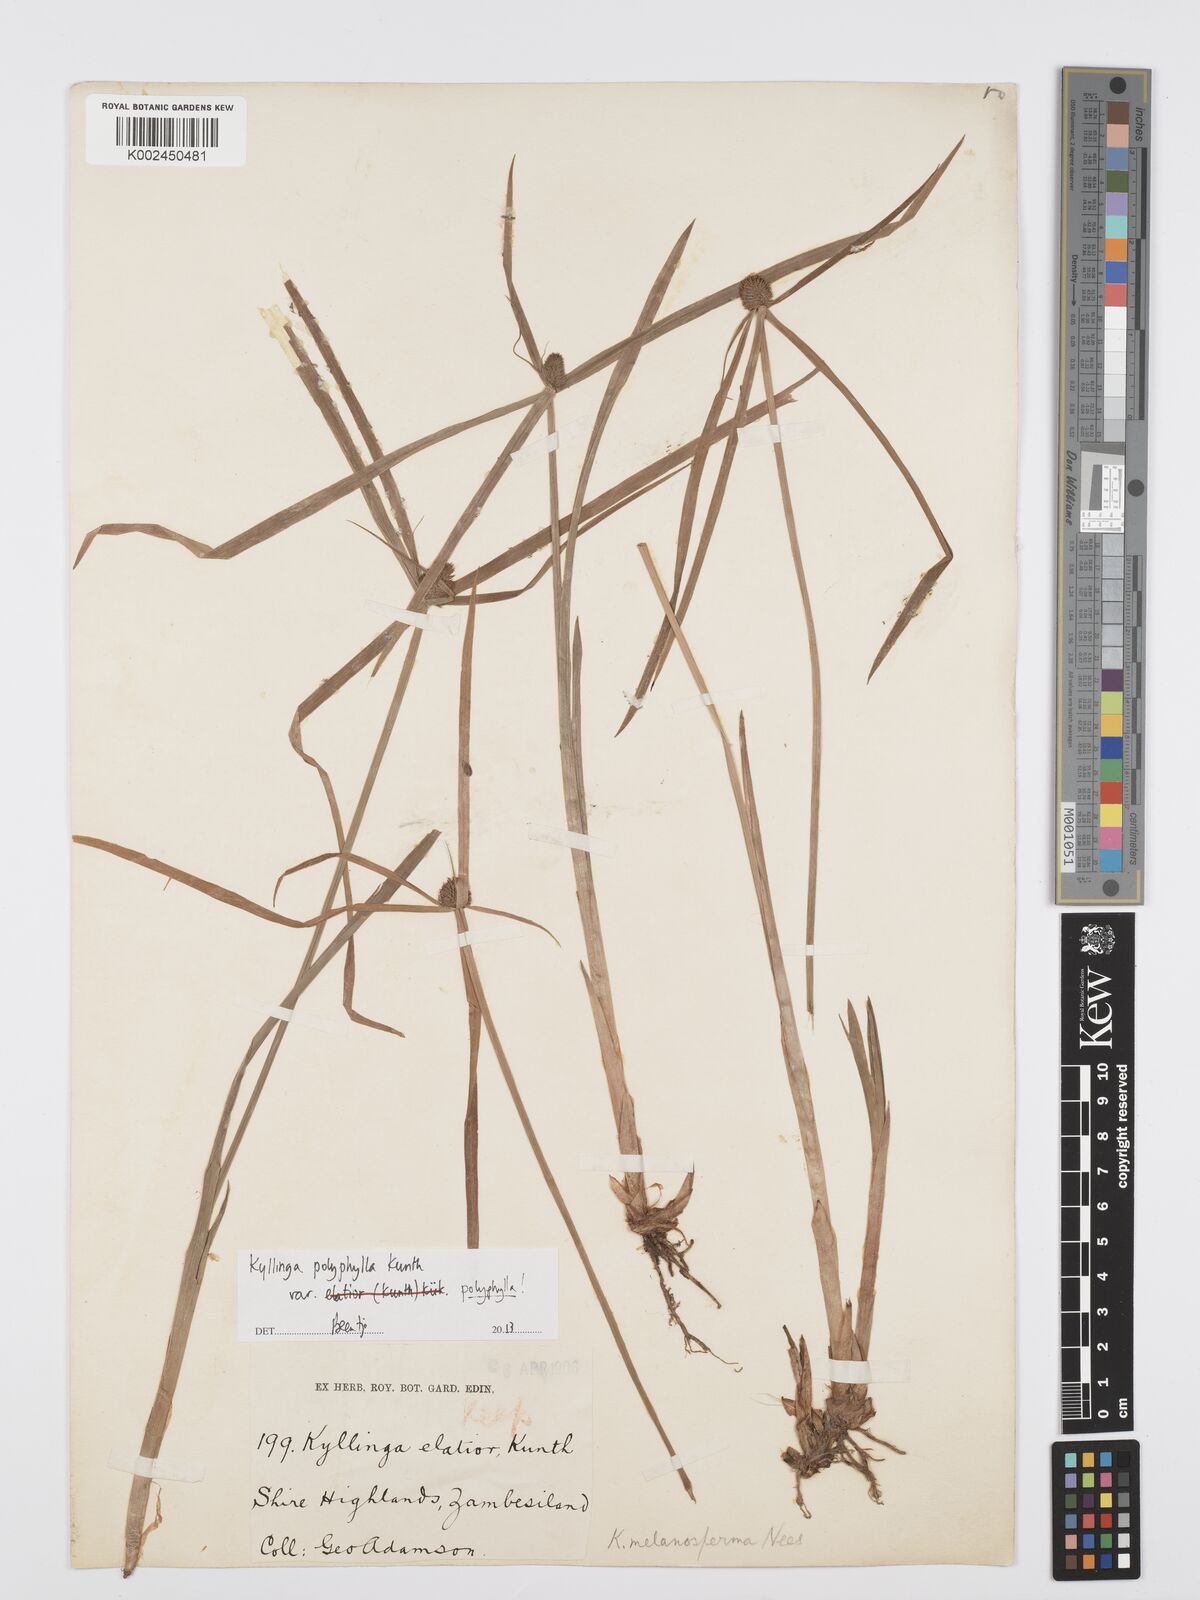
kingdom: Plantae
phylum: Tracheophyta
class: Liliopsida
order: Poales
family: Cyperaceae
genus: Cyperus
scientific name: Cyperus bulbosus
